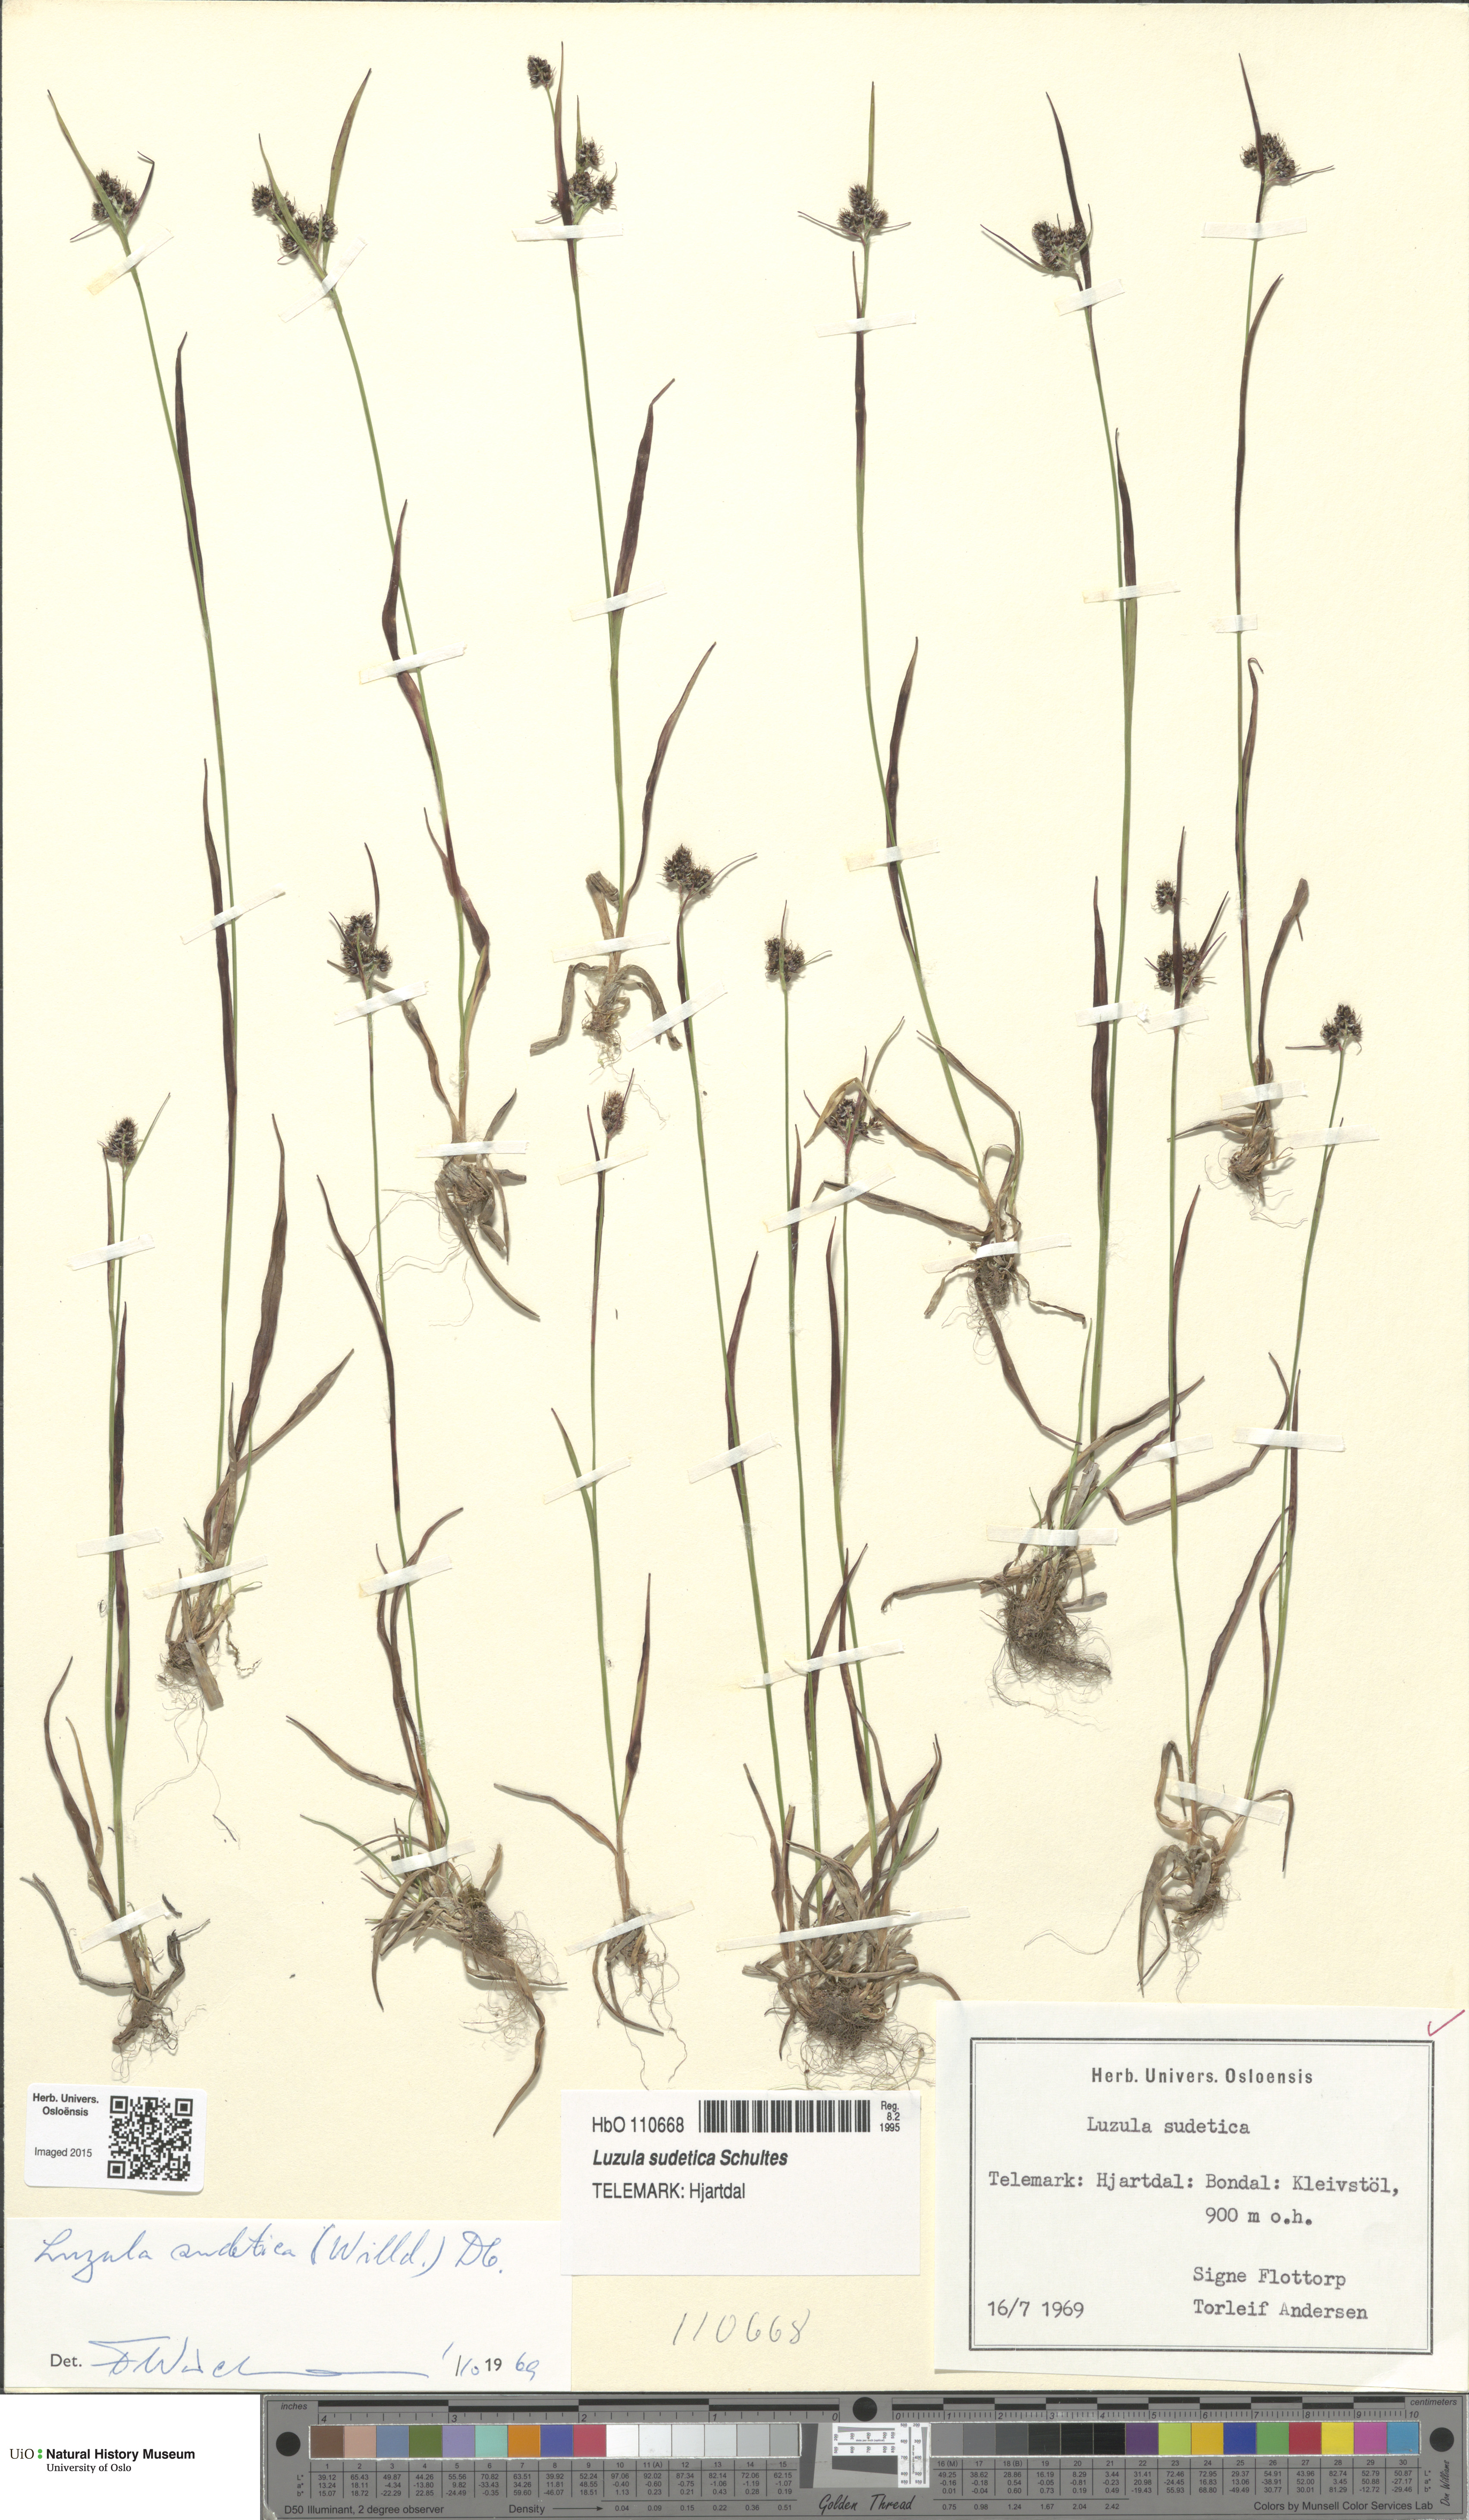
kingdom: Plantae
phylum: Tracheophyta
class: Liliopsida
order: Poales
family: Juncaceae
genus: Luzula
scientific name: Luzula sudetica
